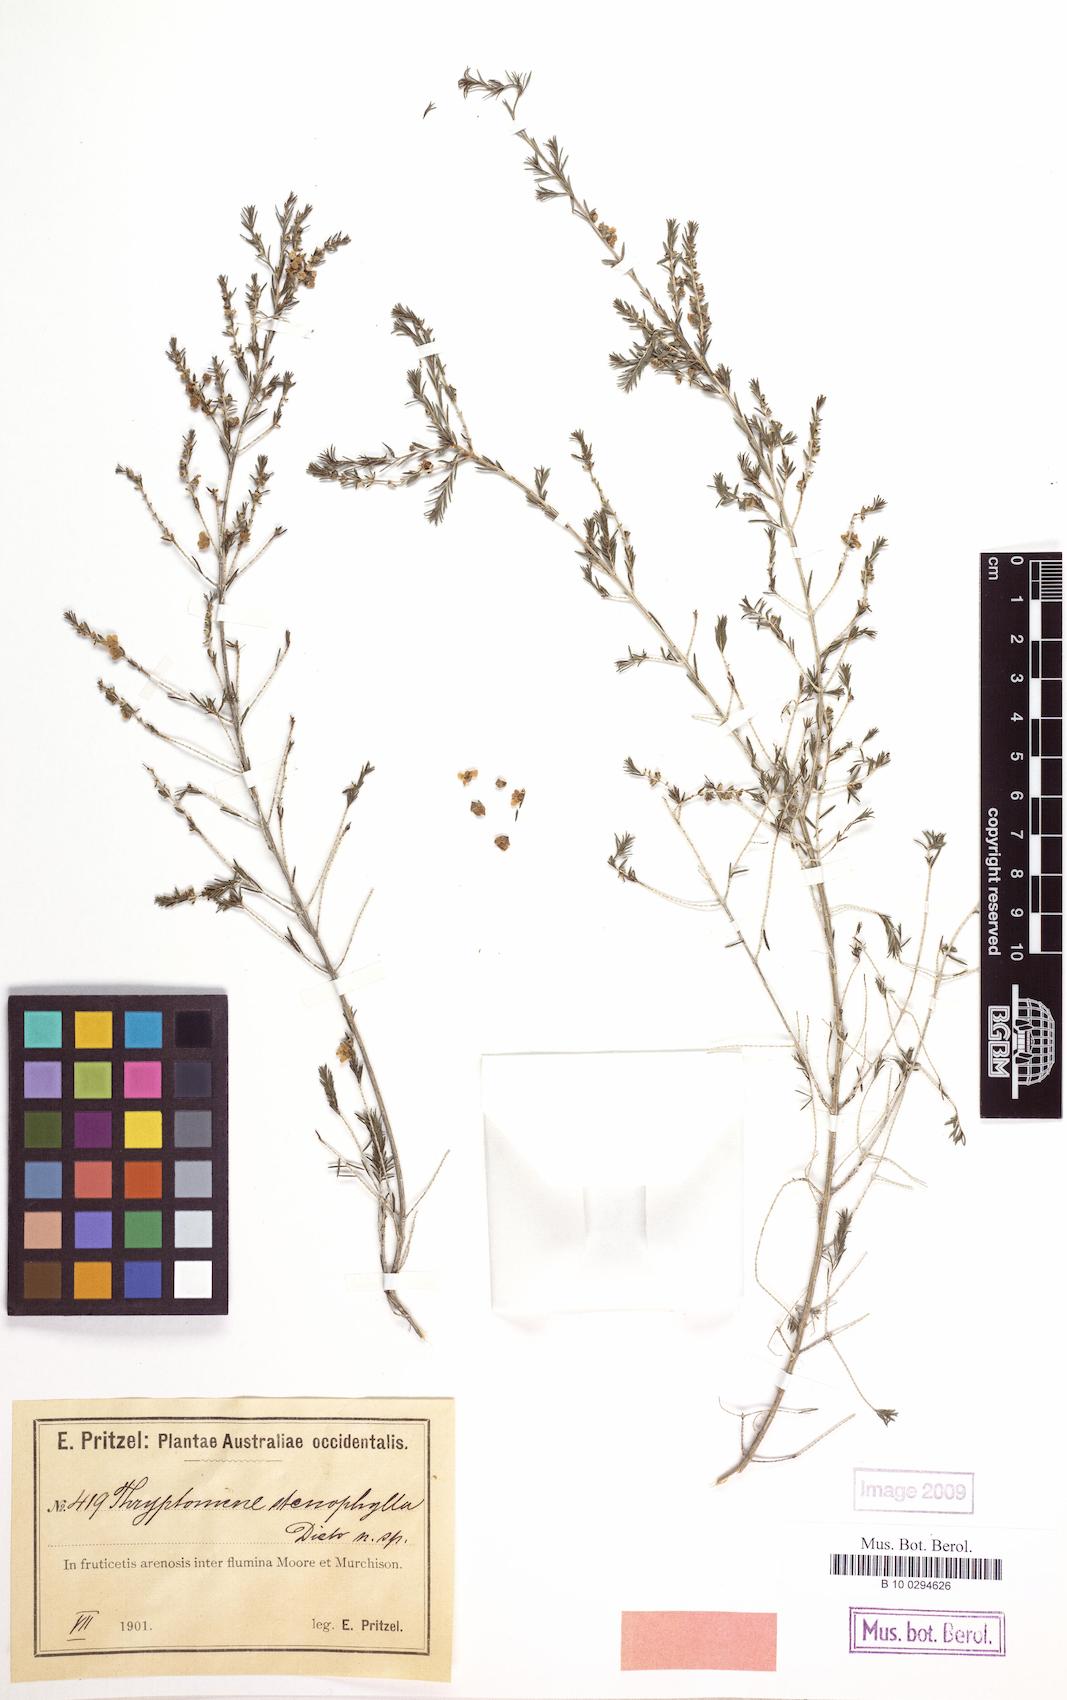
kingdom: Plantae
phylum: Tracheophyta
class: Magnoliopsida
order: Myrtales
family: Myrtaceae
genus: Thryptomene
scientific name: Thryptomene stenophylla
